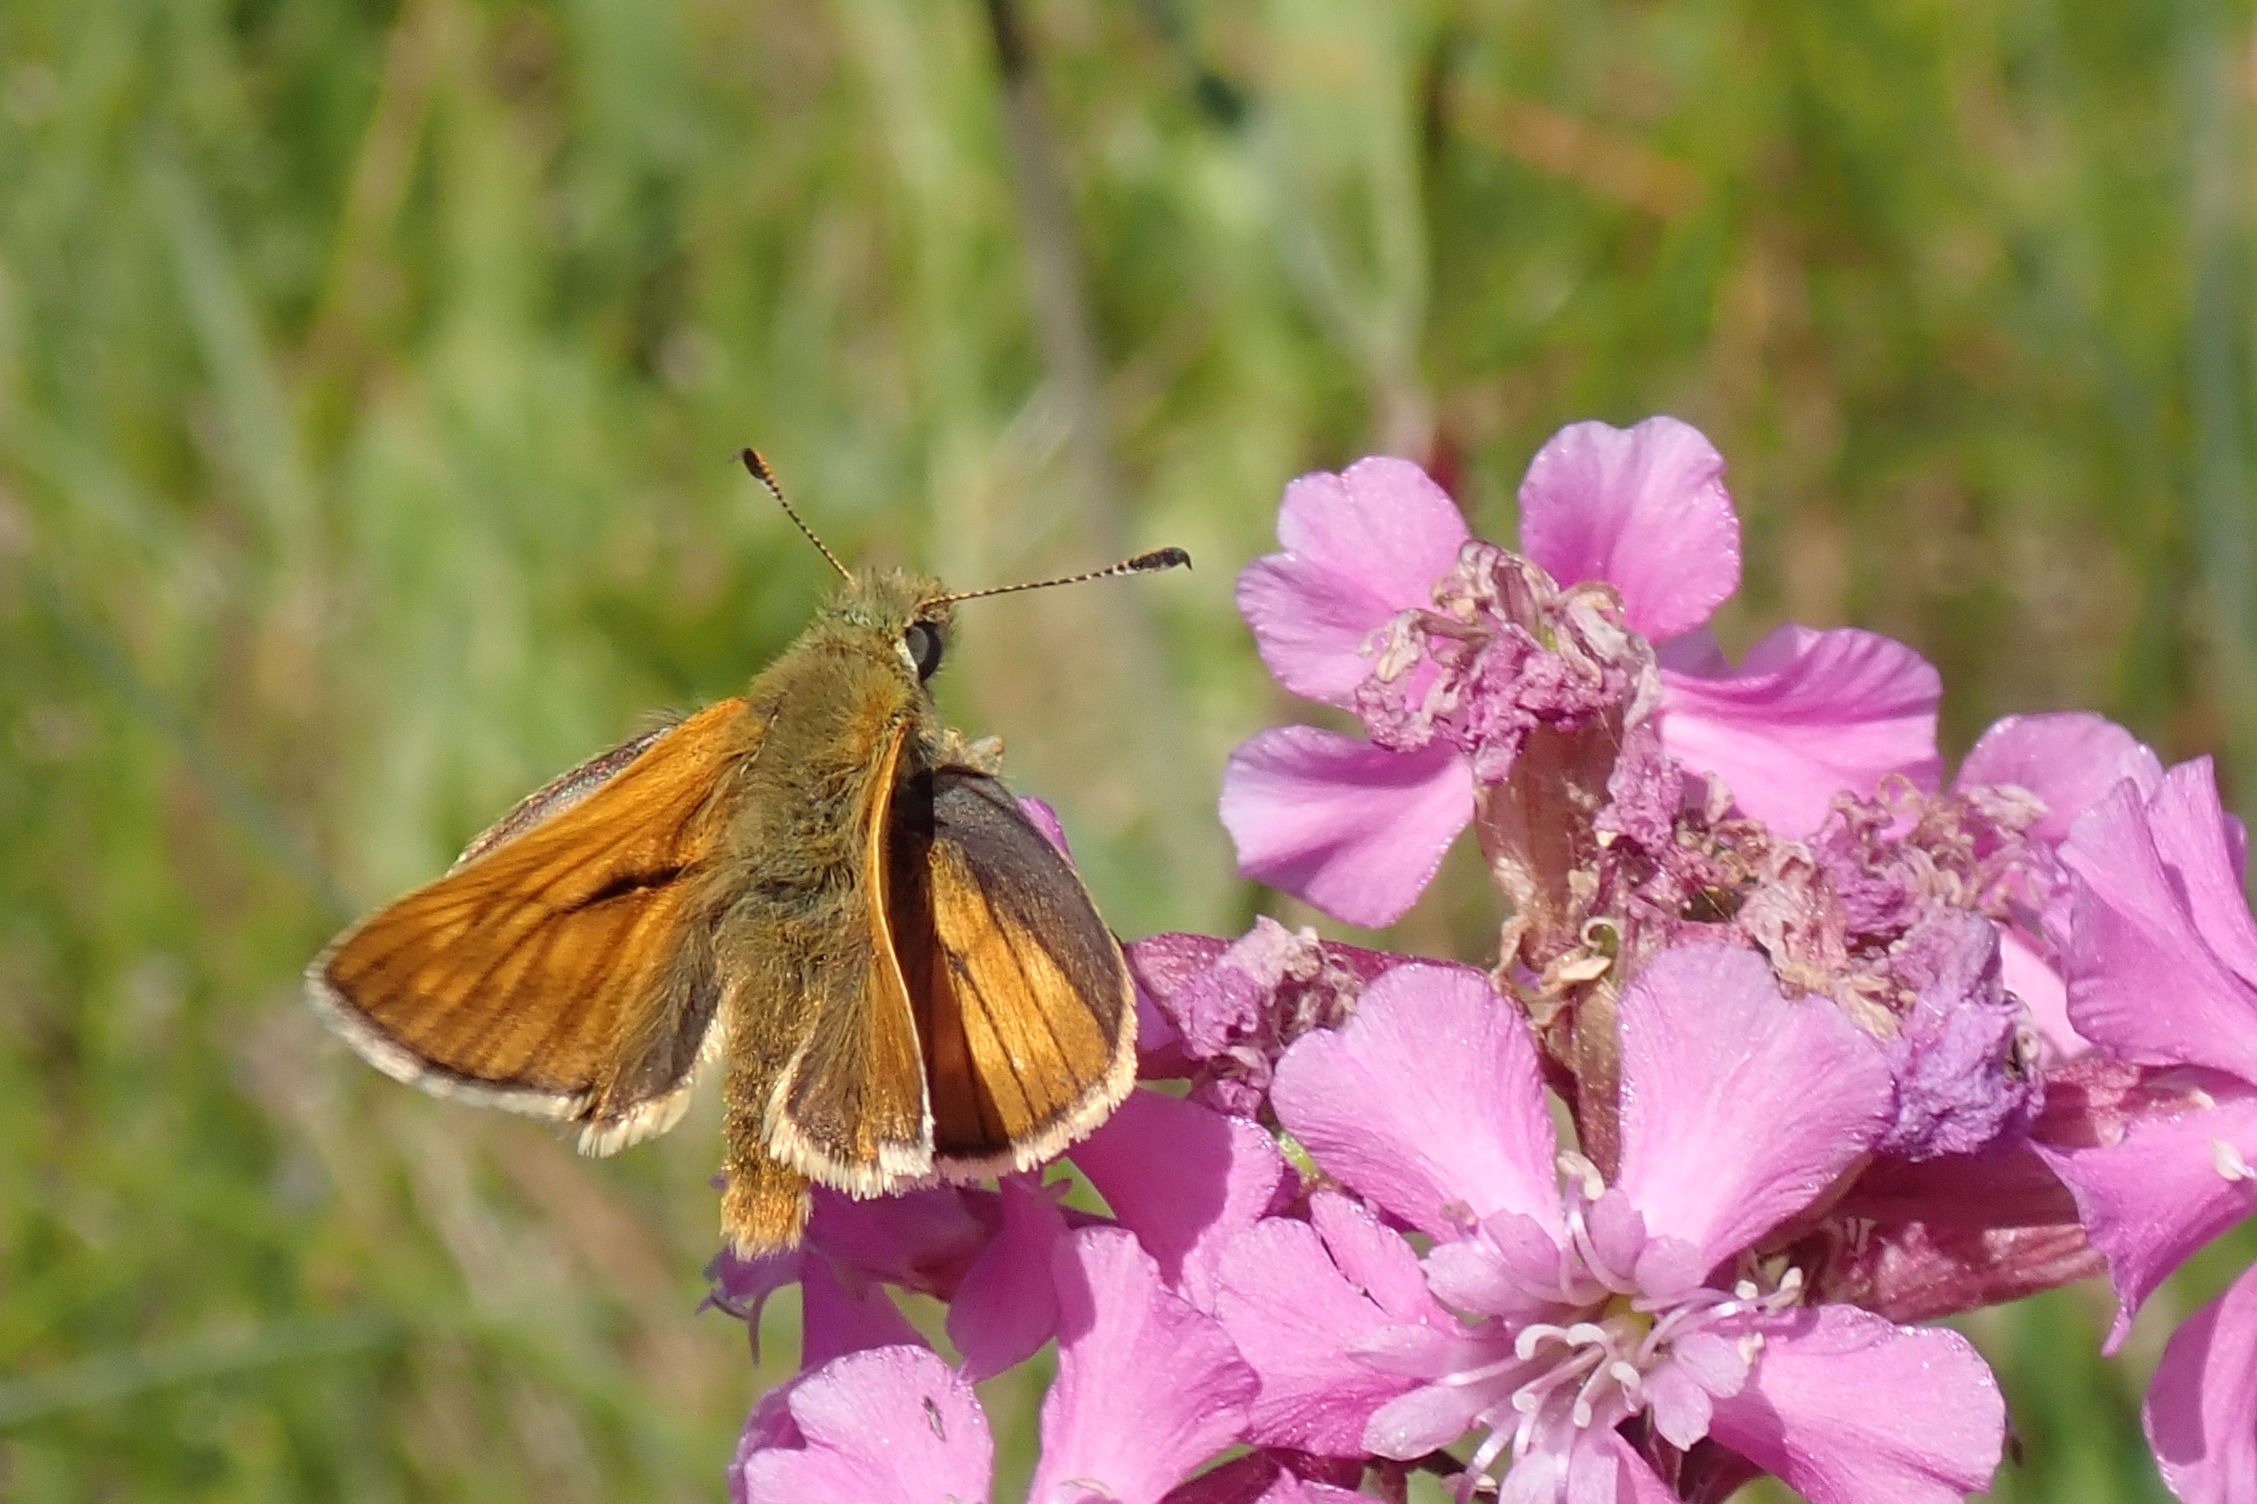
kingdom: Animalia
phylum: Arthropoda
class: Insecta
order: Lepidoptera
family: Hesperiidae
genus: Ochlodes
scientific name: Ochlodes venata
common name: Stor bredpande
